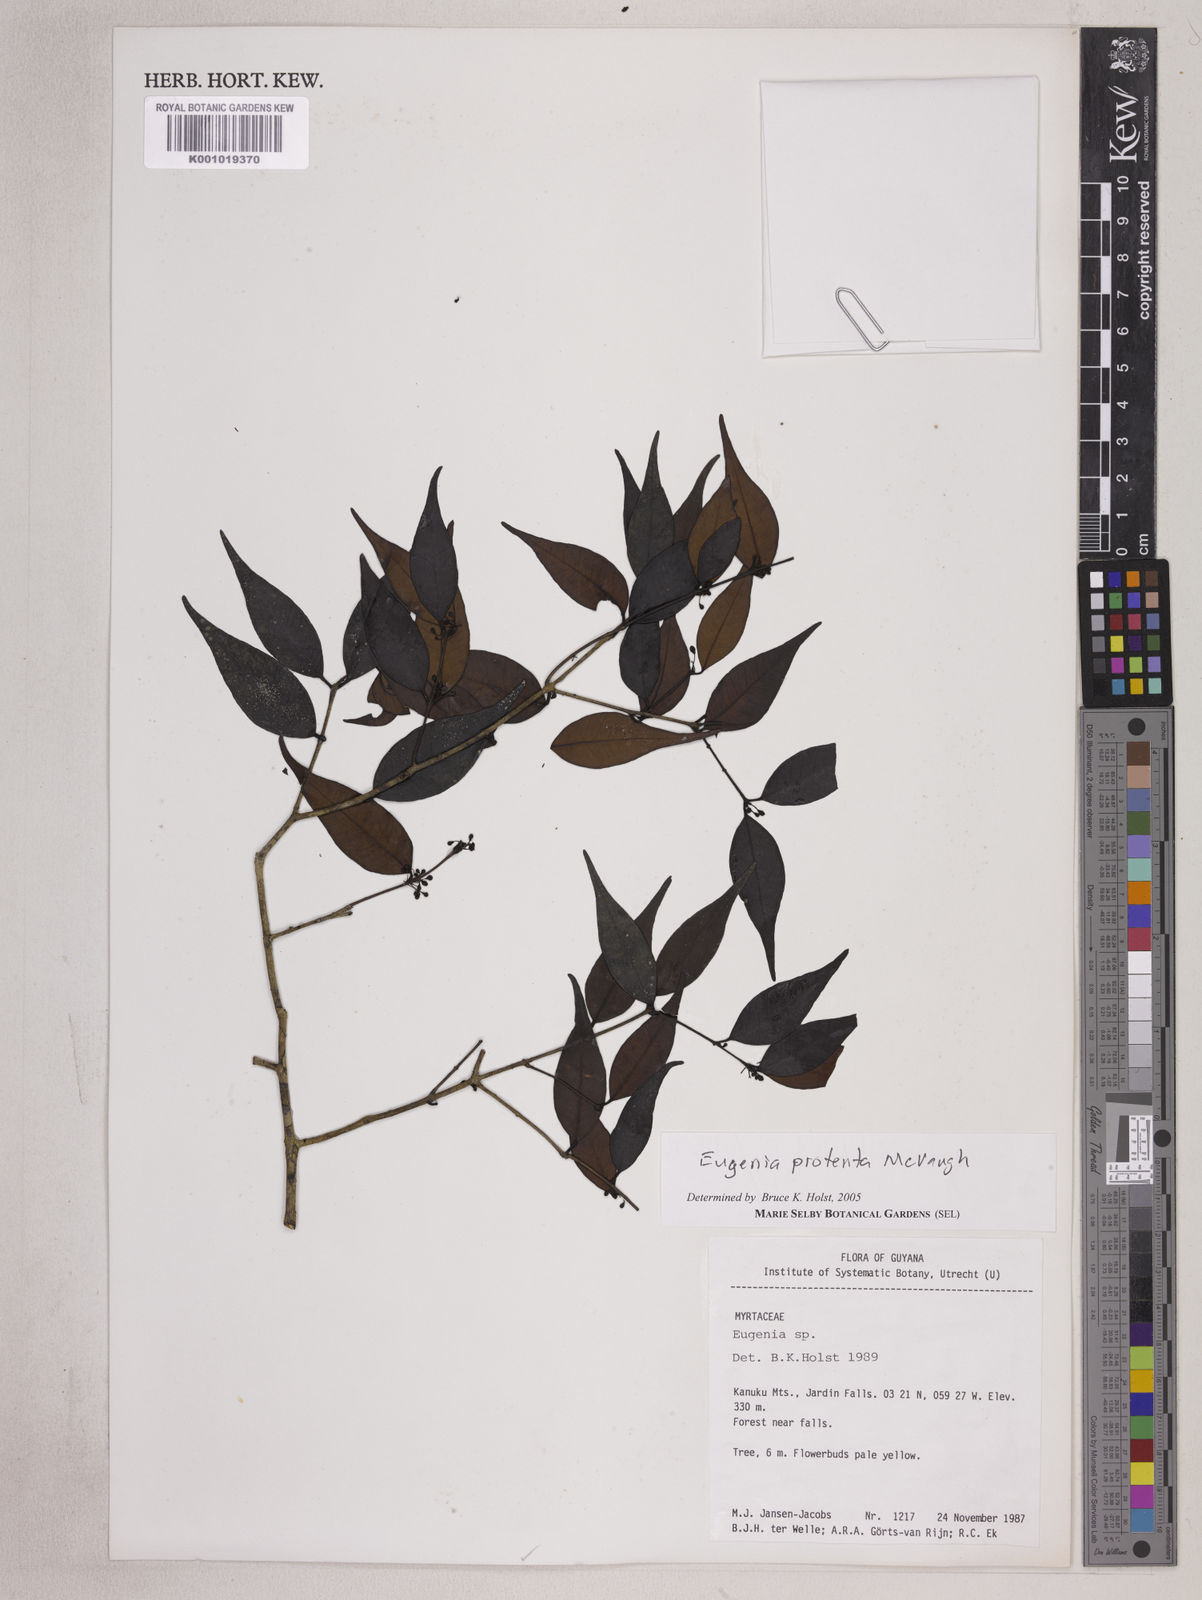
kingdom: Plantae
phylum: Tracheophyta
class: Magnoliopsida
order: Myrtales
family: Myrtaceae
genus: Eugenia
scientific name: Eugenia protenta
